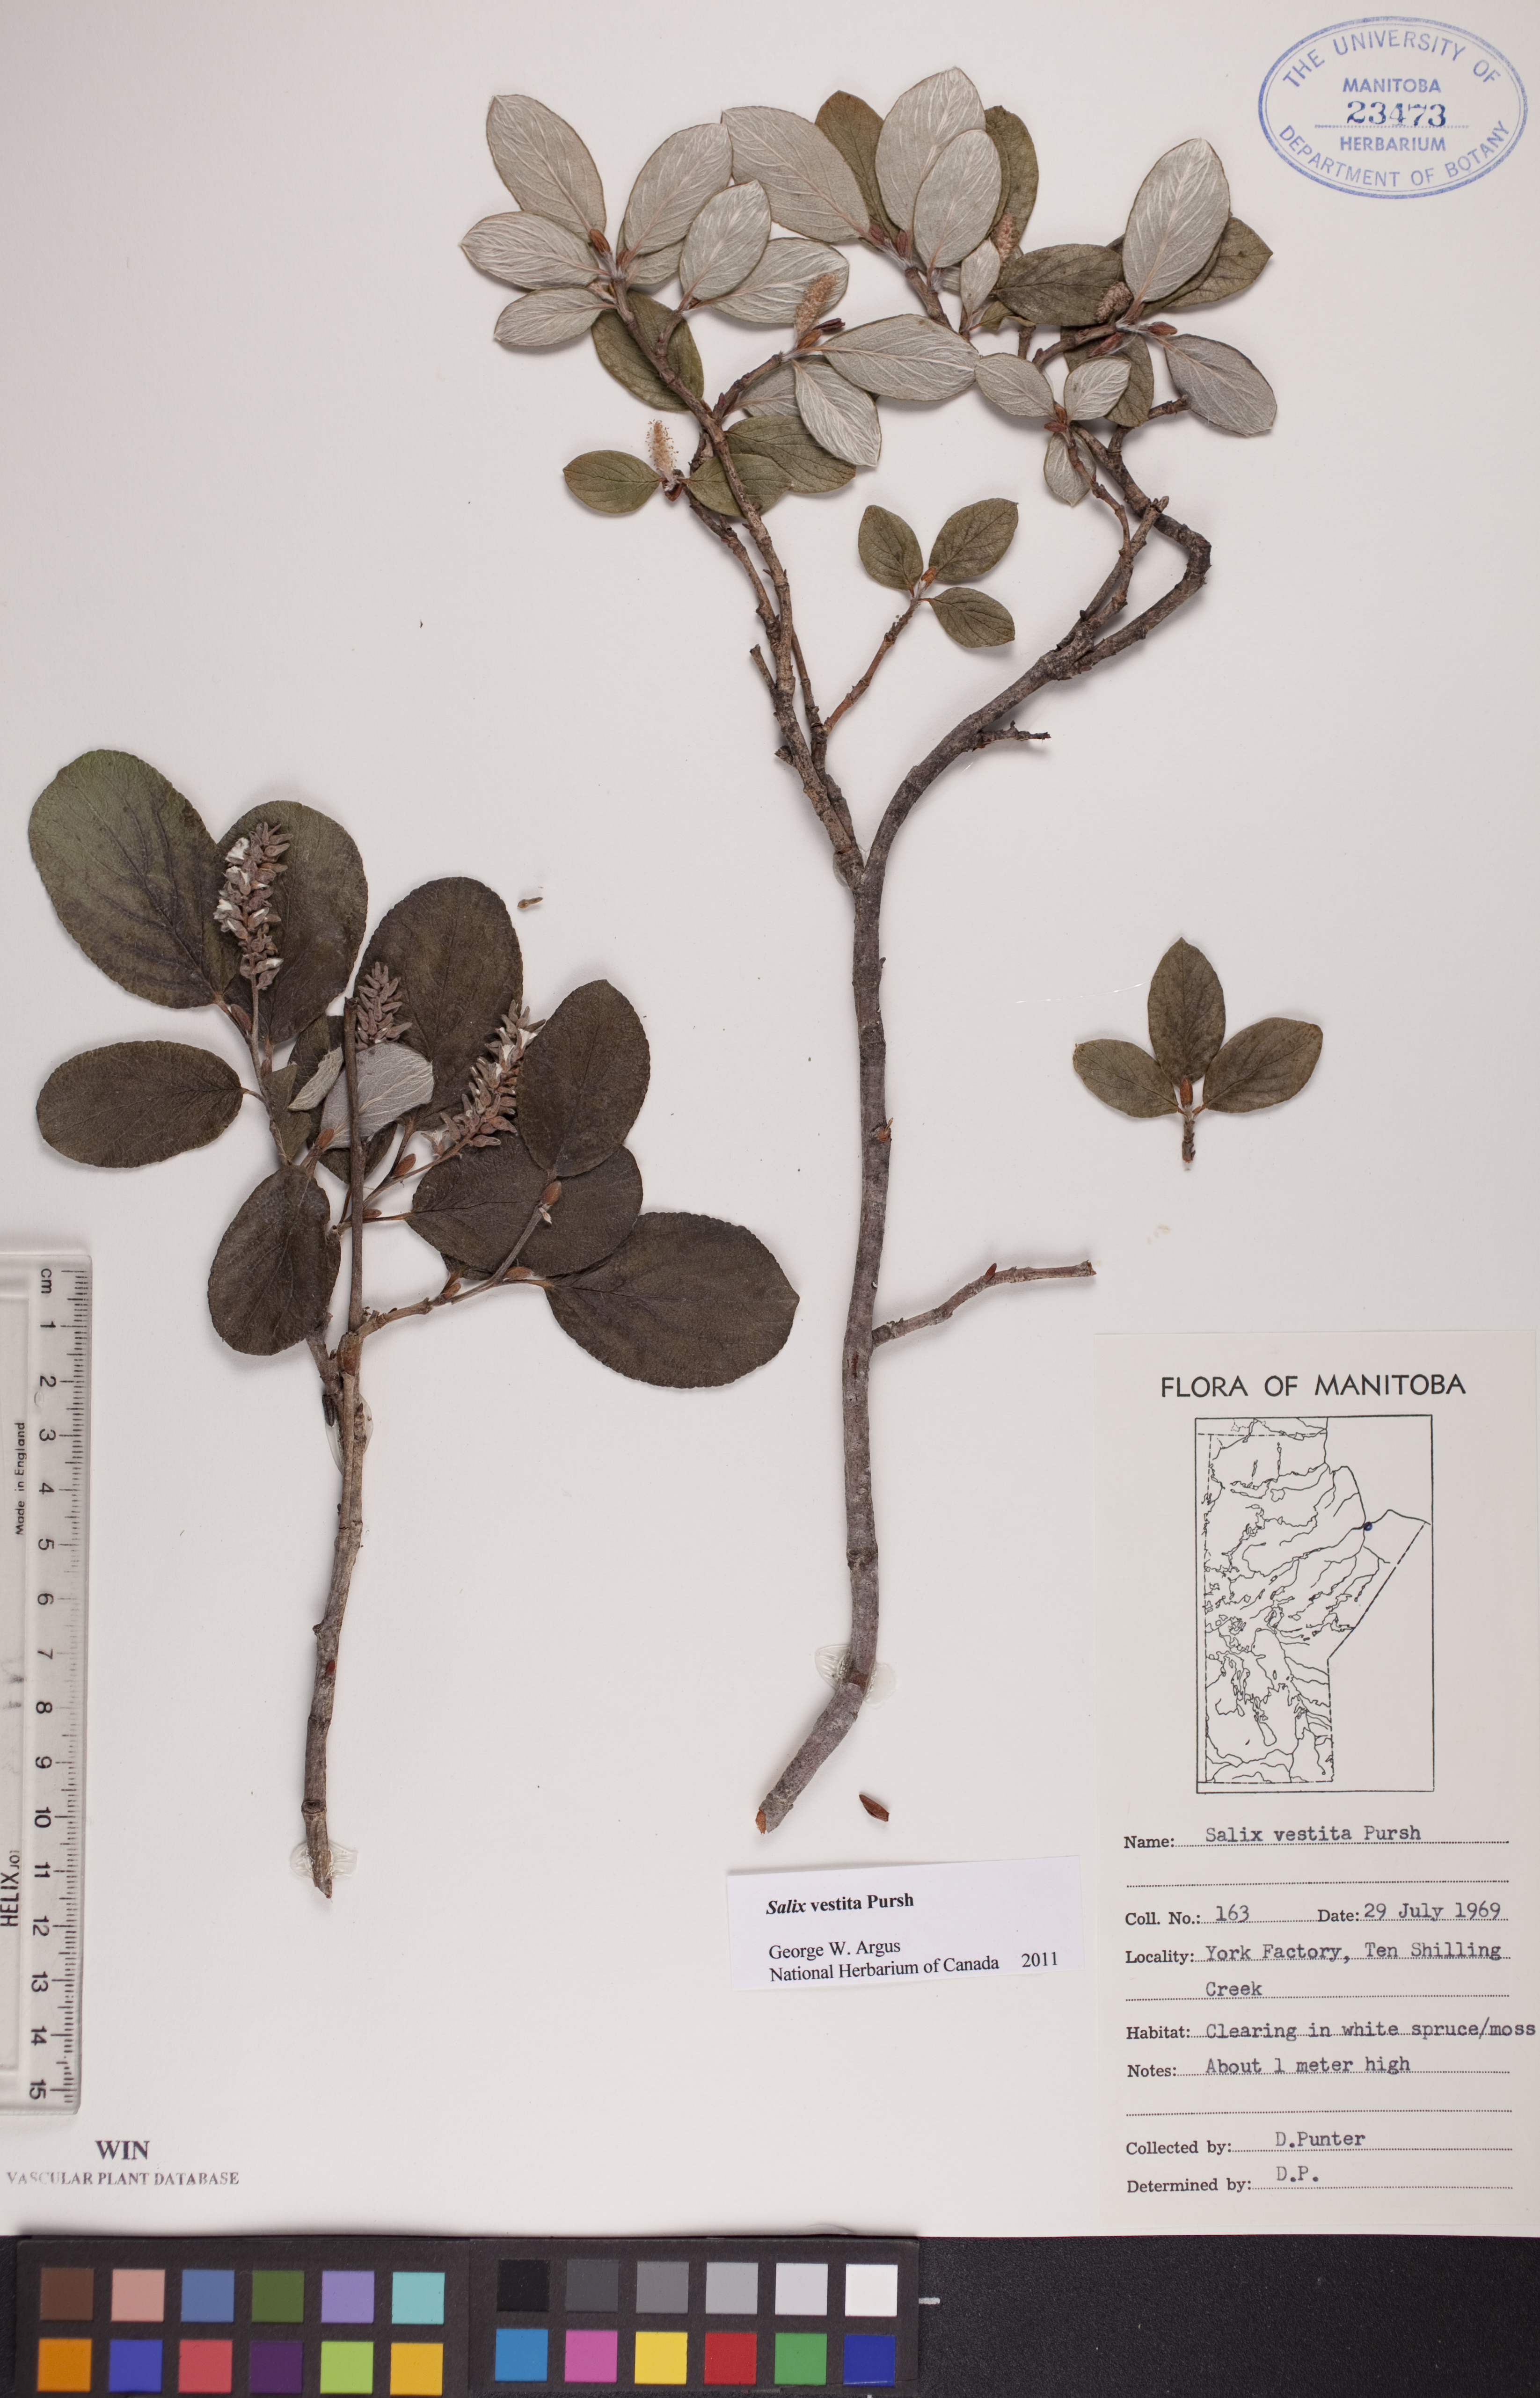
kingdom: Plantae
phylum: Tracheophyta
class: Magnoliopsida
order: Malpighiales
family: Salicaceae
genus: Salix
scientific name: Salix vestita
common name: Hairy willow
